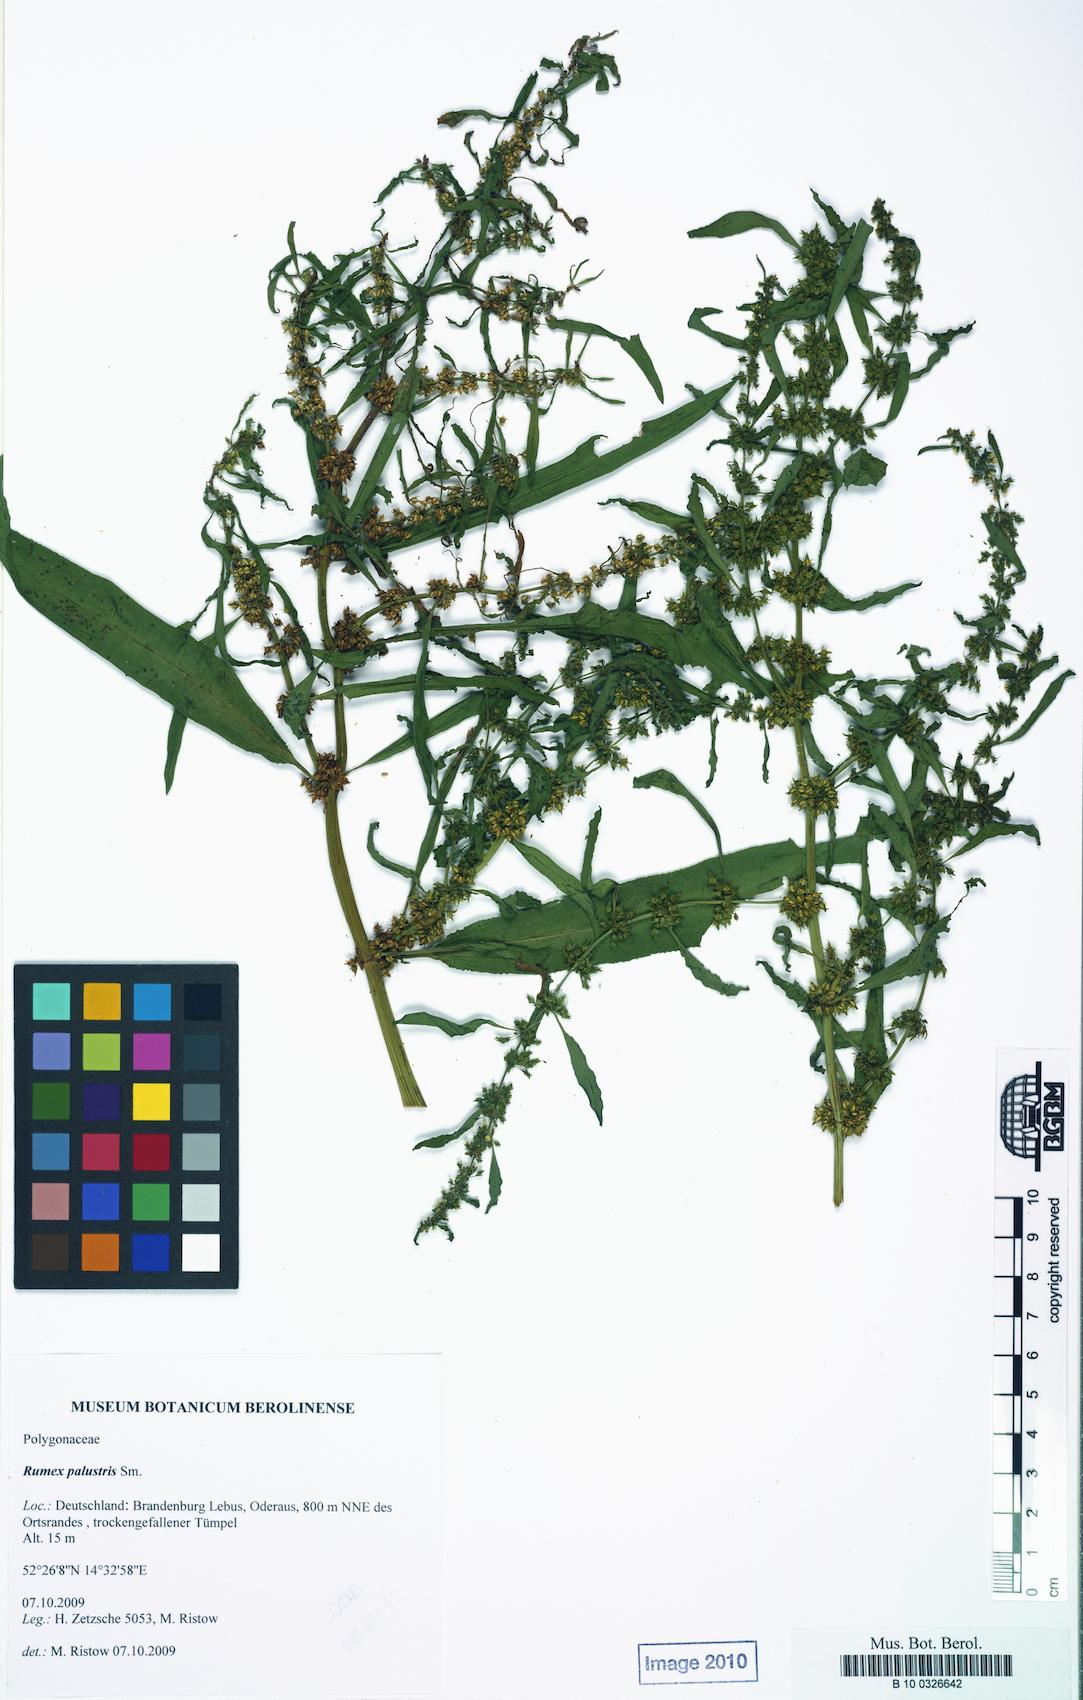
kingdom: Plantae
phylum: Tracheophyta
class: Magnoliopsida
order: Caryophyllales
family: Polygonaceae
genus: Rumex
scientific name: Rumex palustris
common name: Marsh dock
